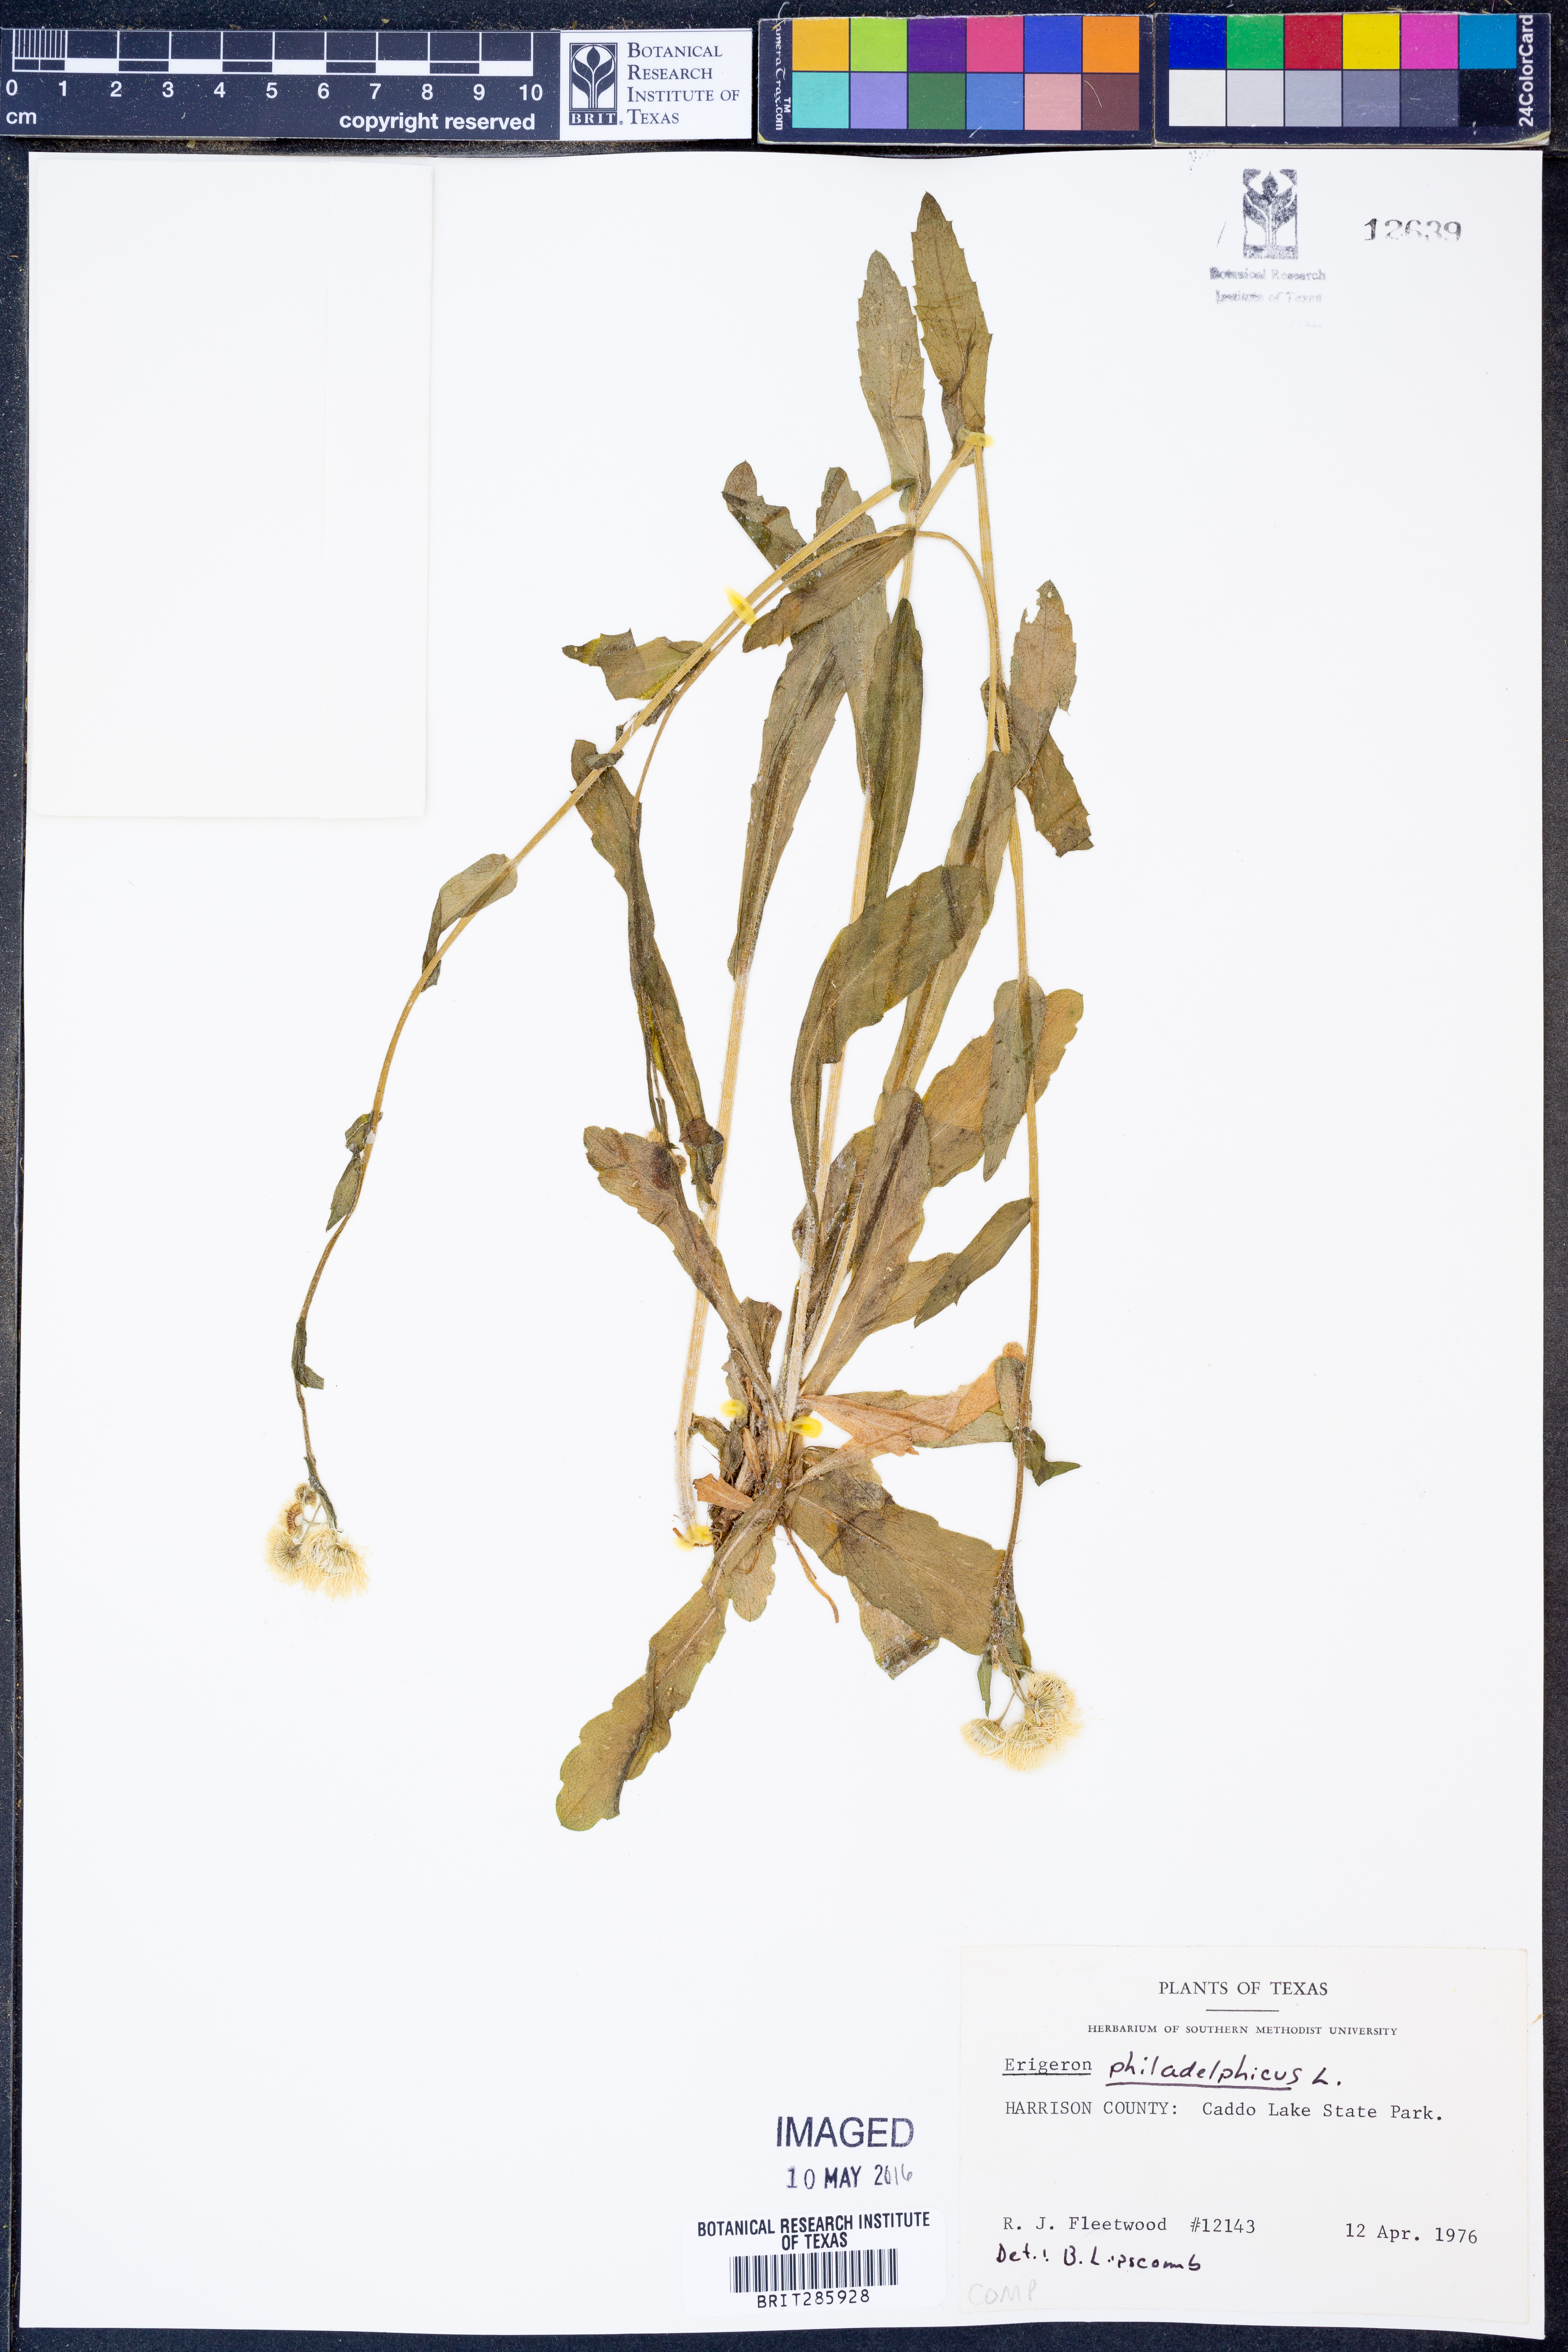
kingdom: Plantae
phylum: Tracheophyta
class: Magnoliopsida
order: Asterales
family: Asteraceae
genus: Erigeron
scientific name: Erigeron philadelphicus
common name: Robin's-plantain
